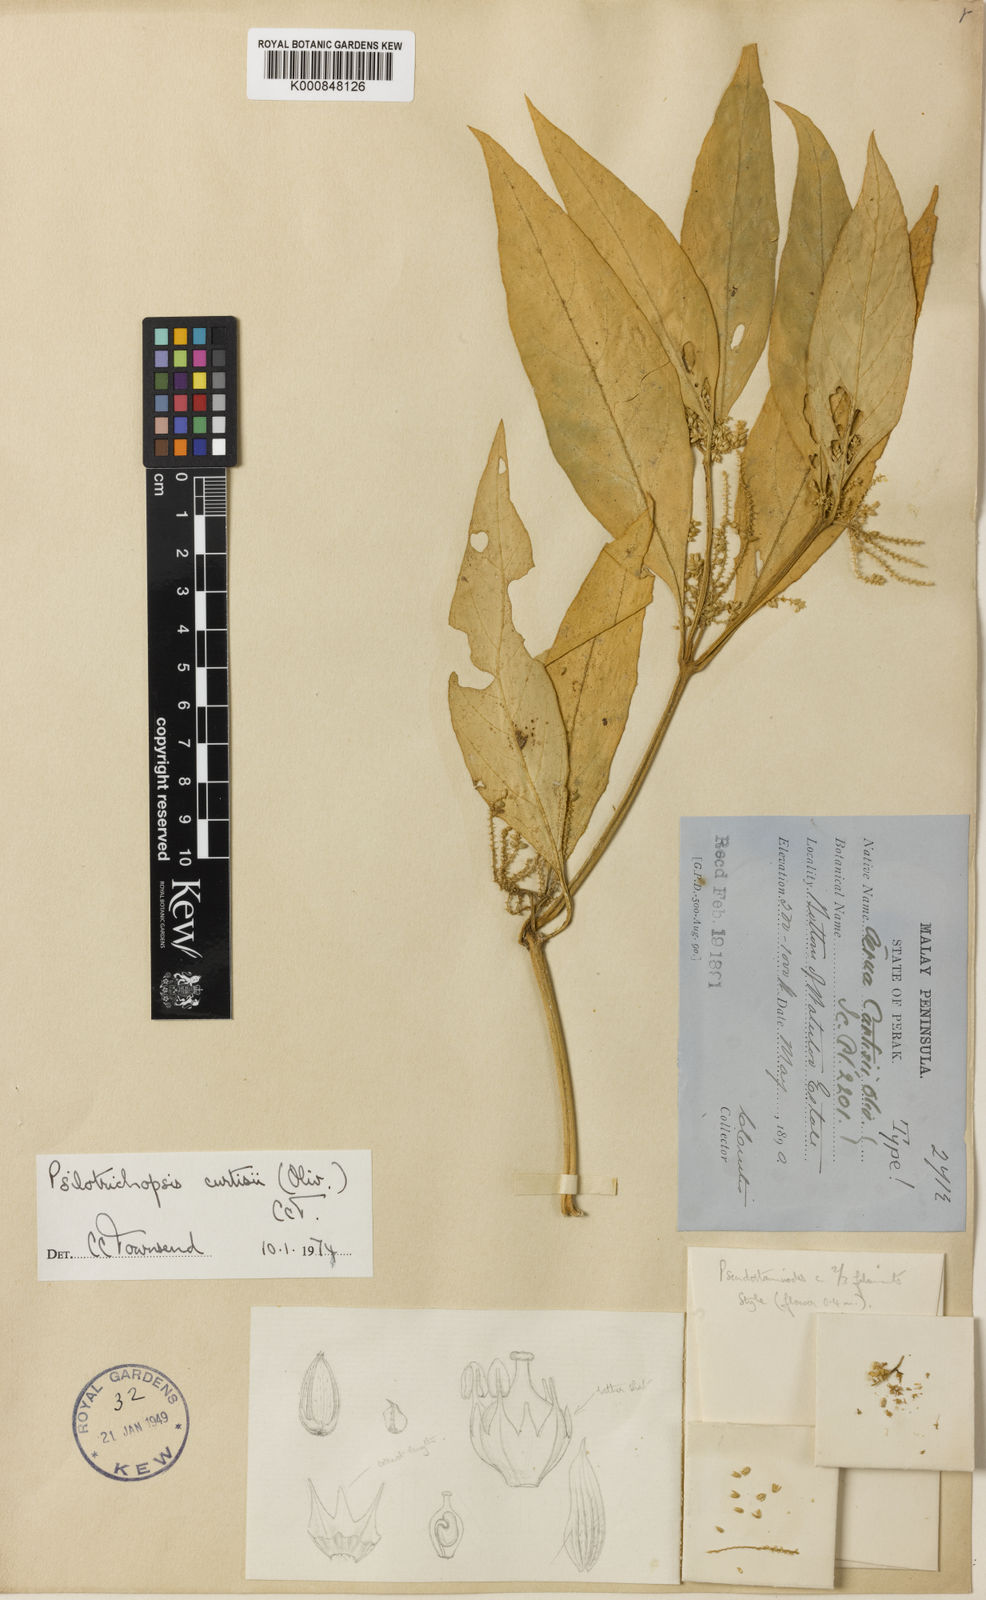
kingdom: Plantae
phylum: Tracheophyta
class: Magnoliopsida
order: Caryophyllales
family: Amaranthaceae
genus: Psilotrichopsis
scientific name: Psilotrichopsis curtisii
